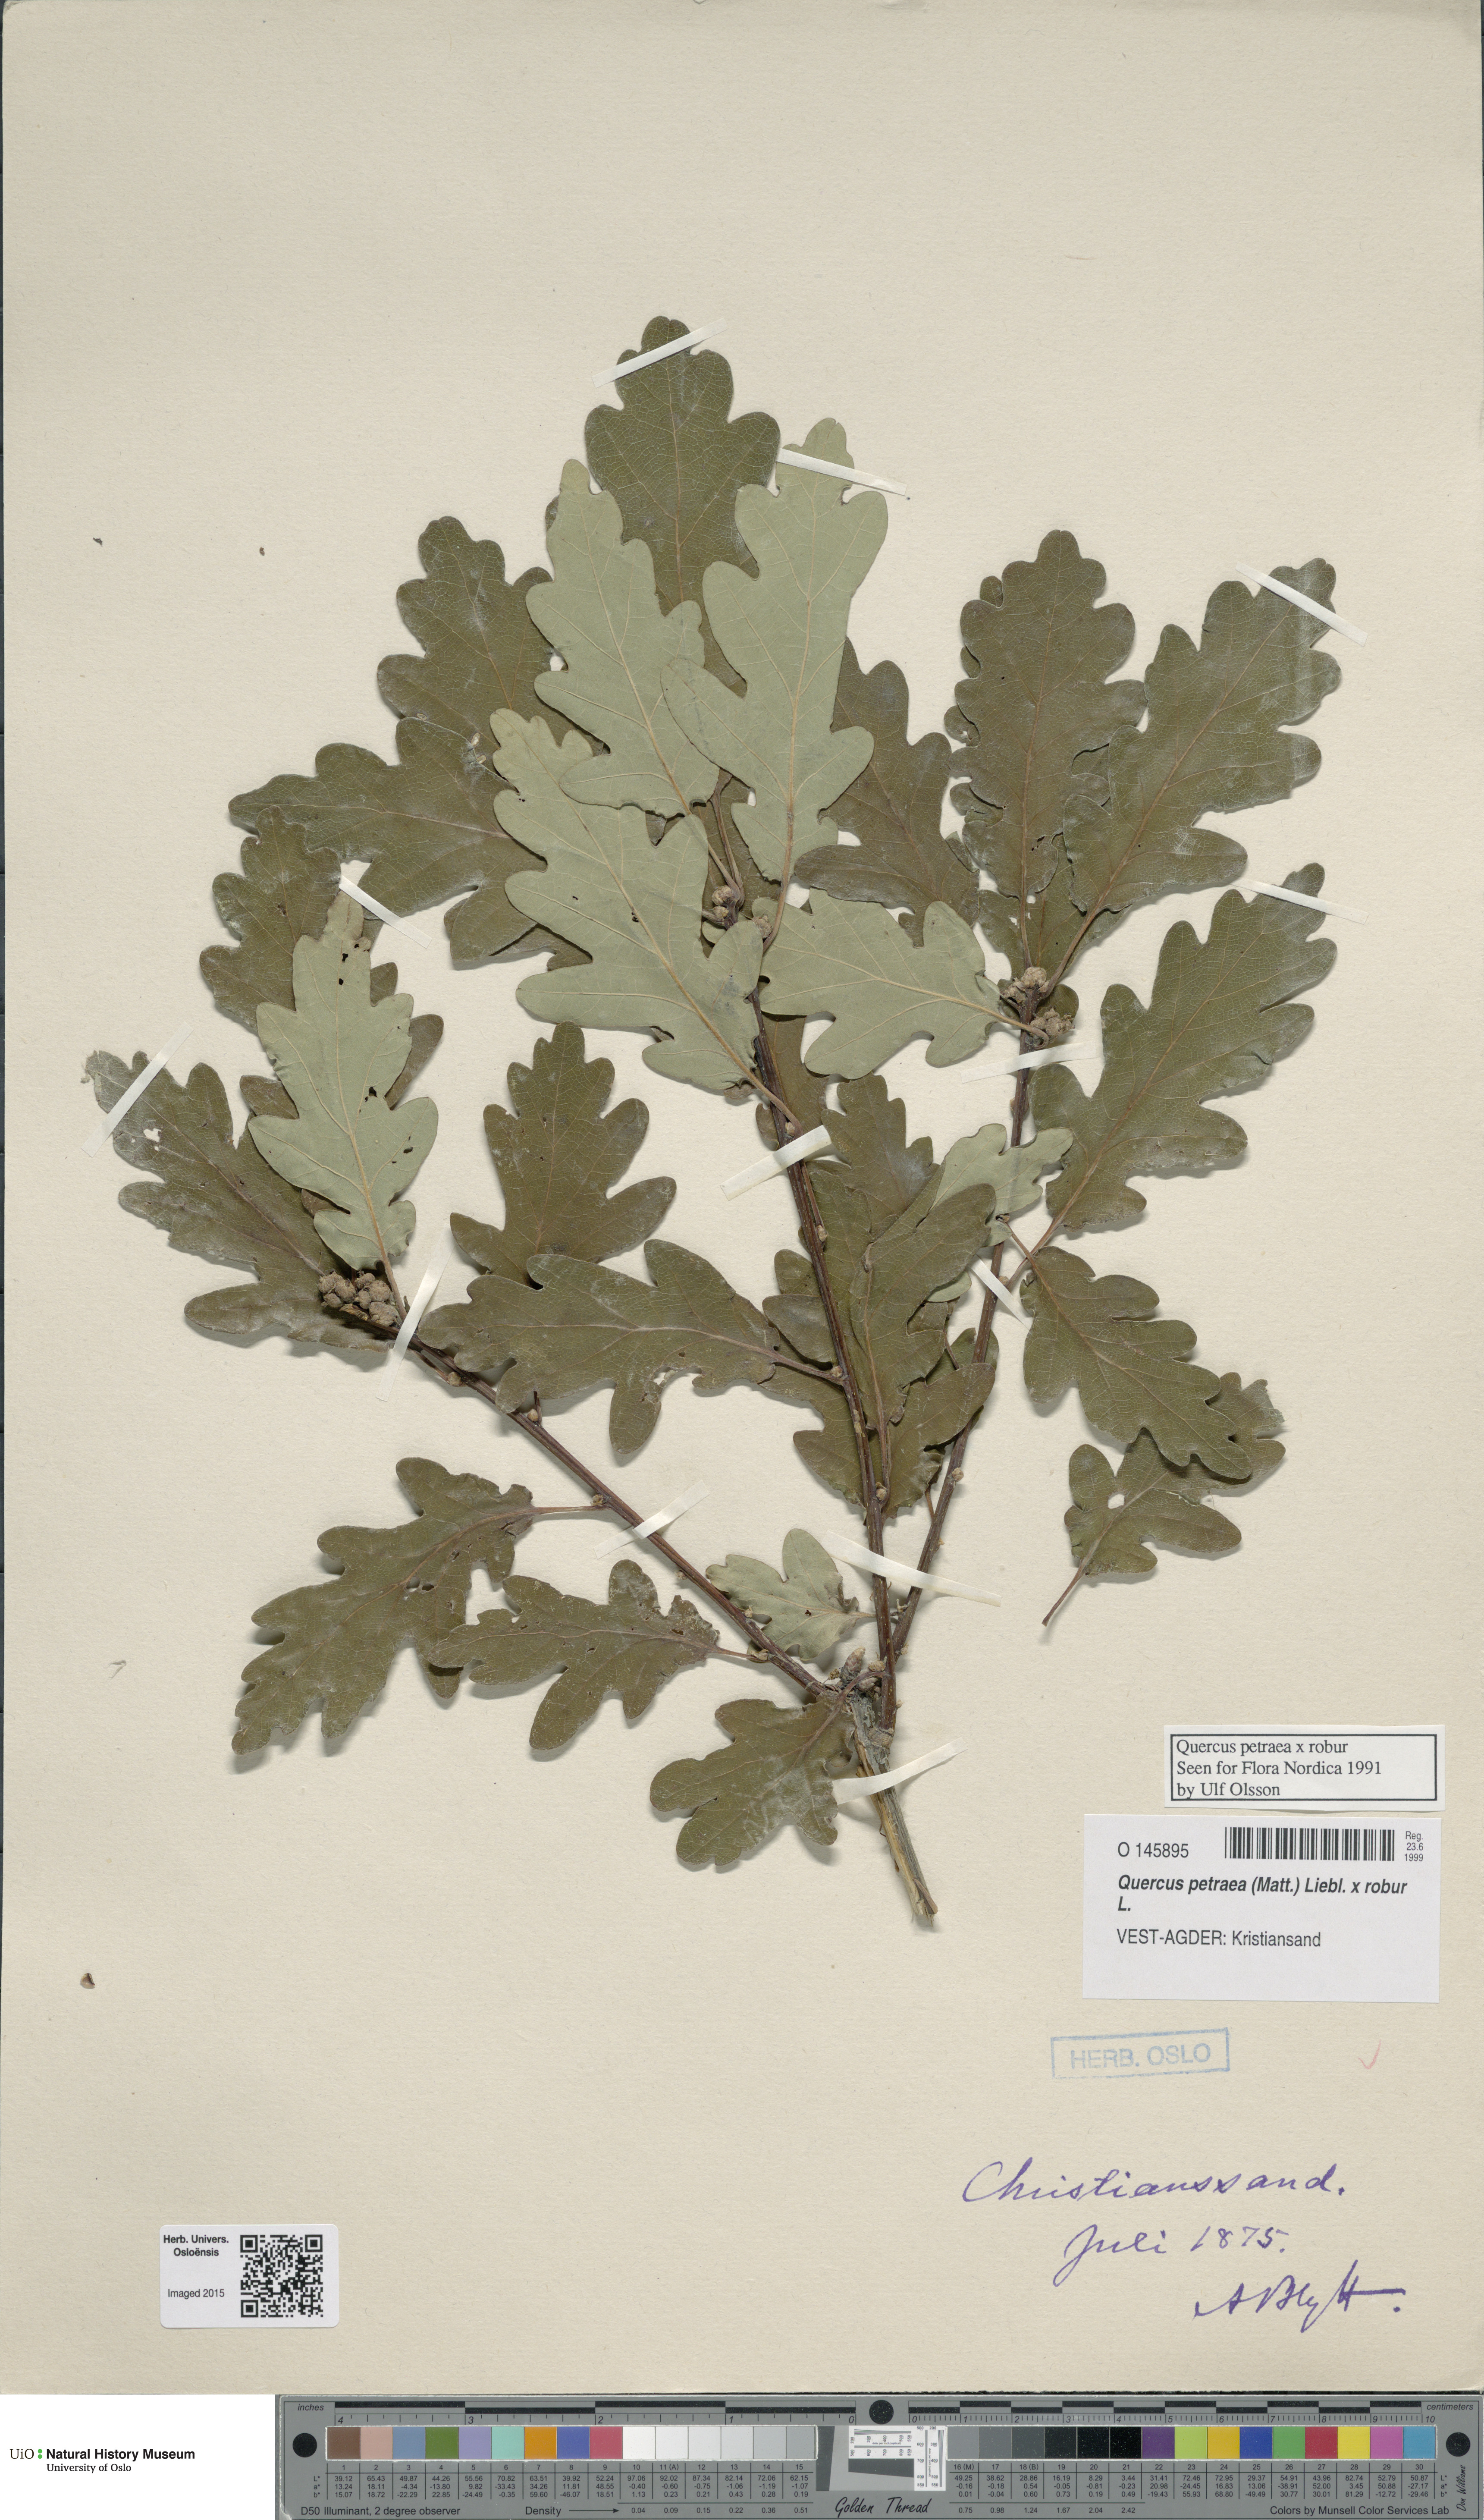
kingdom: Plantae
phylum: Tracheophyta
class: Magnoliopsida
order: Fagales
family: Fagaceae
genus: Quercus
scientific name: Quercus
